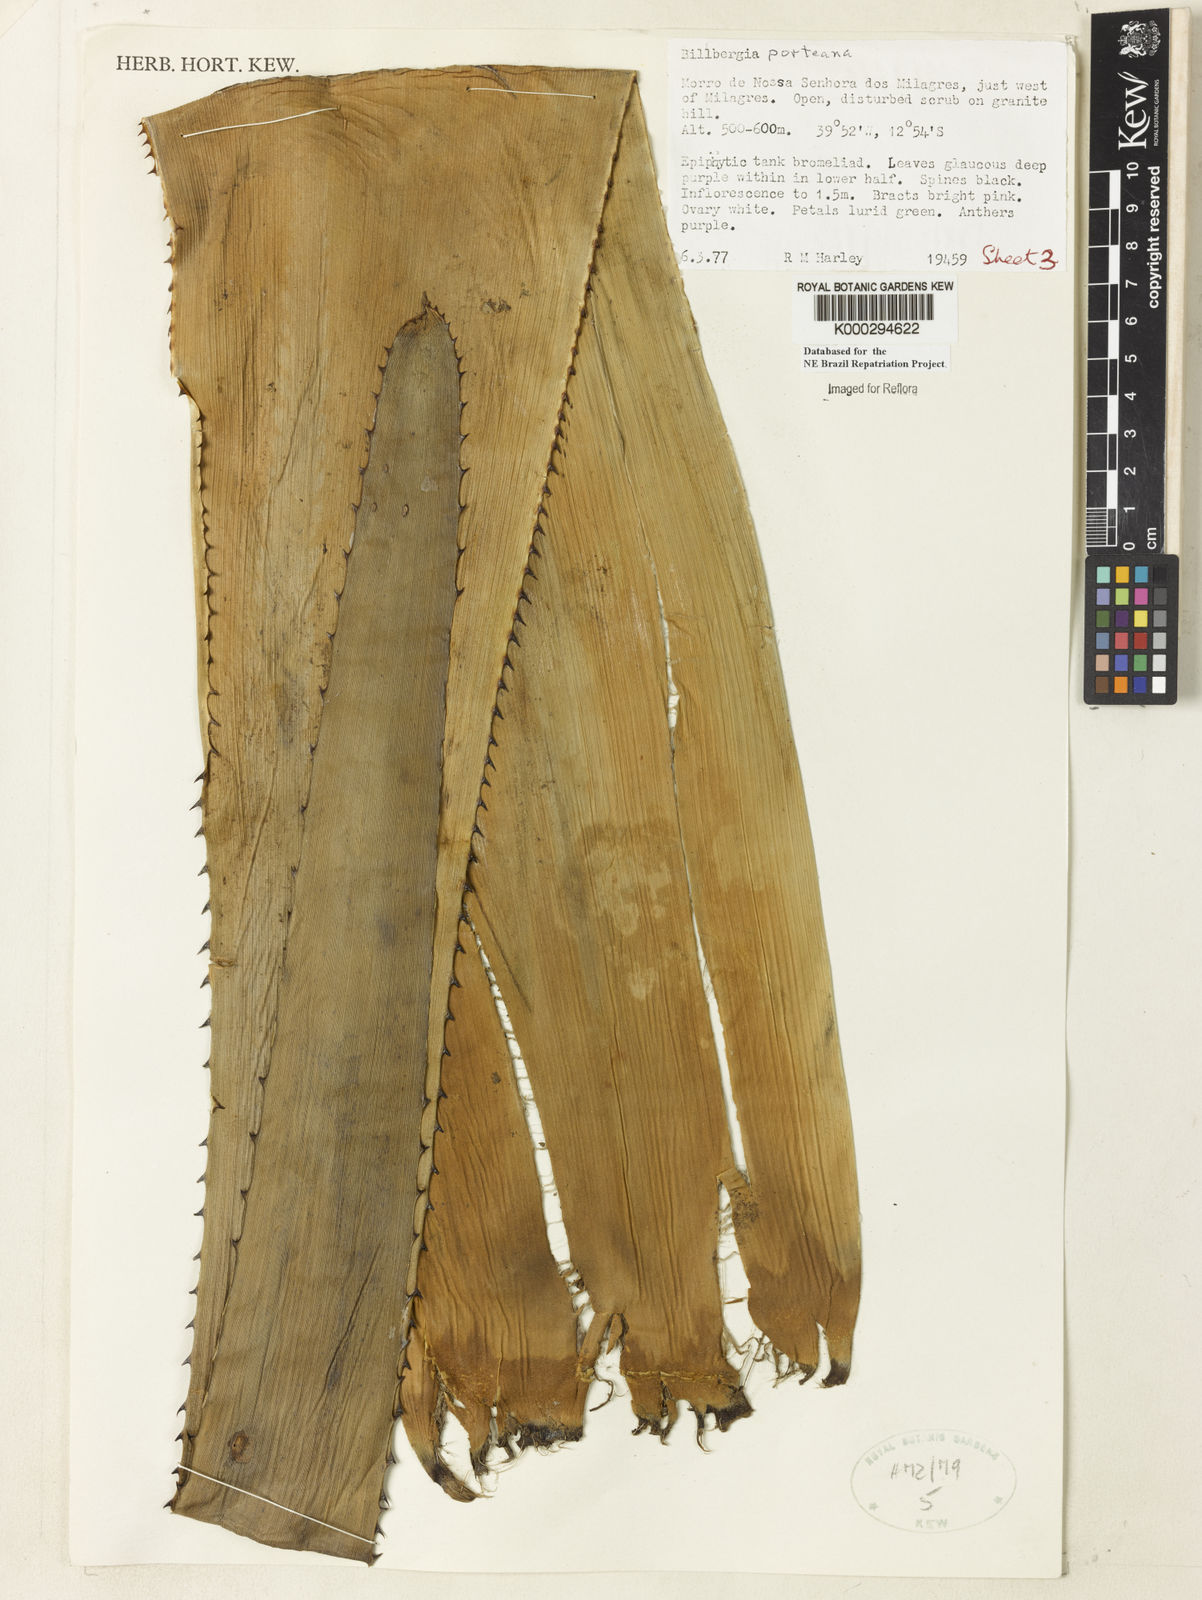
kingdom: Plantae
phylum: Tracheophyta
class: Liliopsida
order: Poales
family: Bromeliaceae
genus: Billbergia
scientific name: Billbergia porteana
